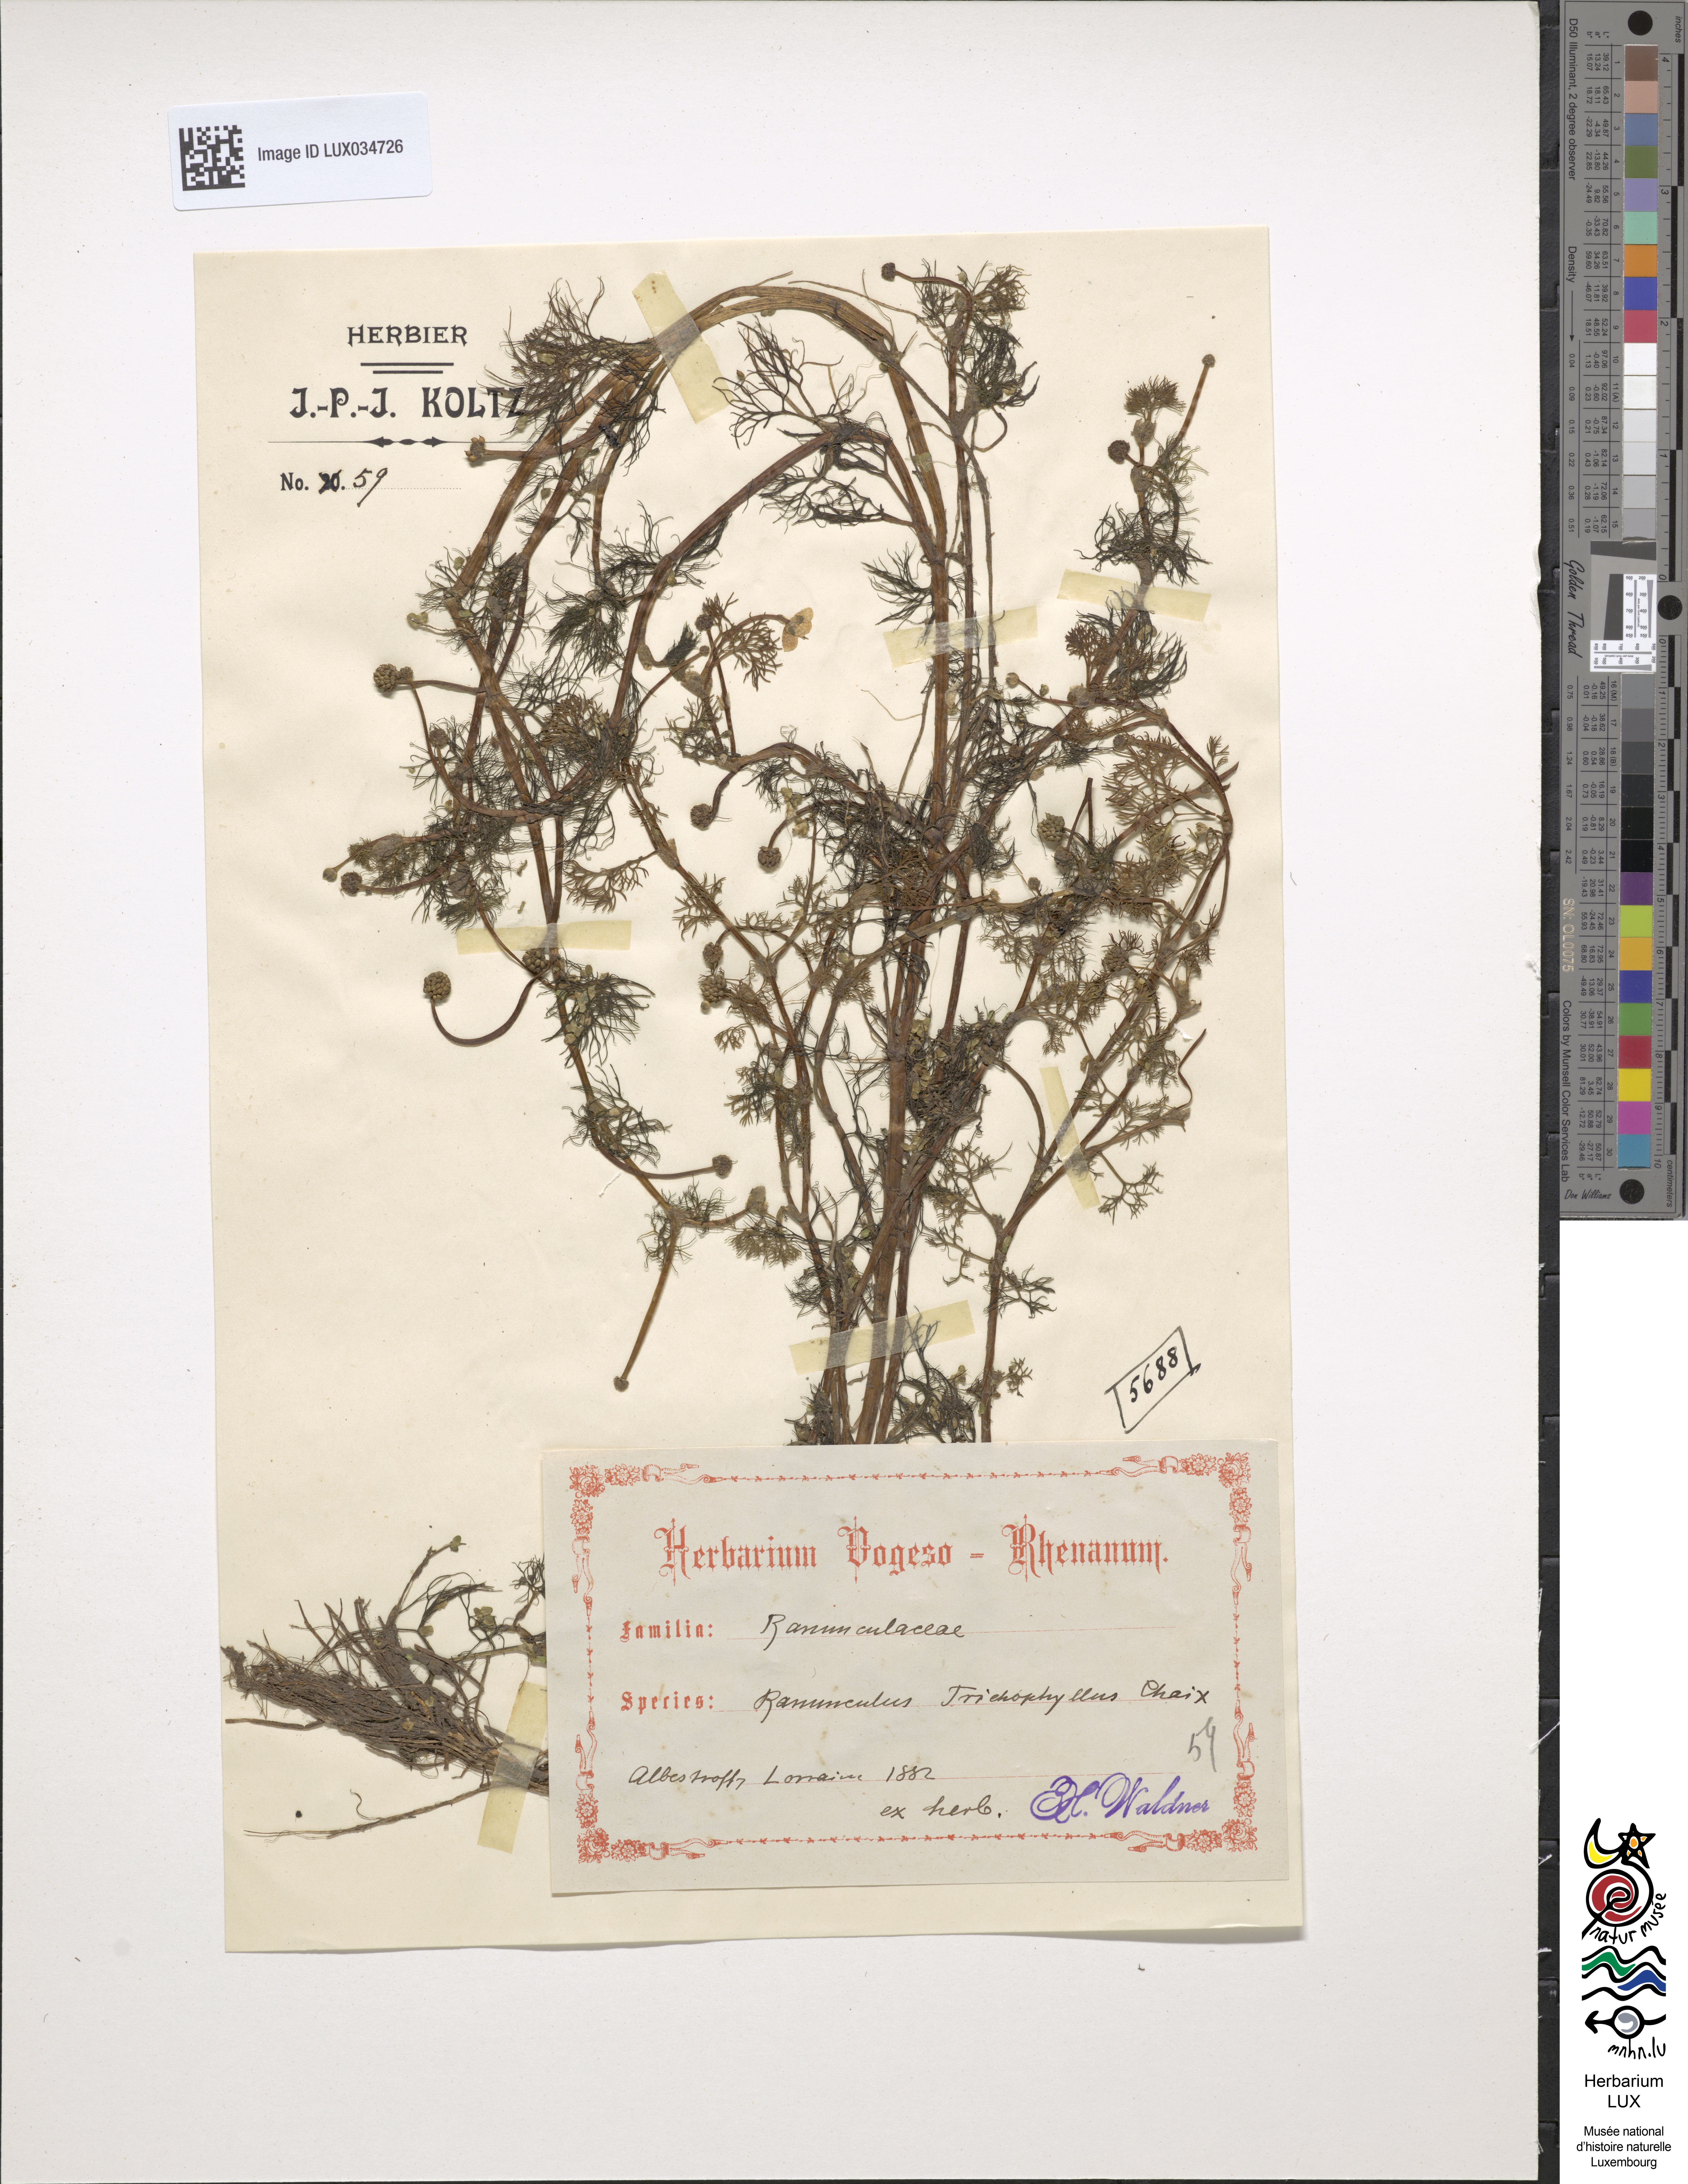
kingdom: Plantae
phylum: Tracheophyta
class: Magnoliopsida
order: Ranunculales
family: Ranunculaceae
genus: Ranunculus
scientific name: Ranunculus trichophyllus
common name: Thread-leaved water-crowfoot
